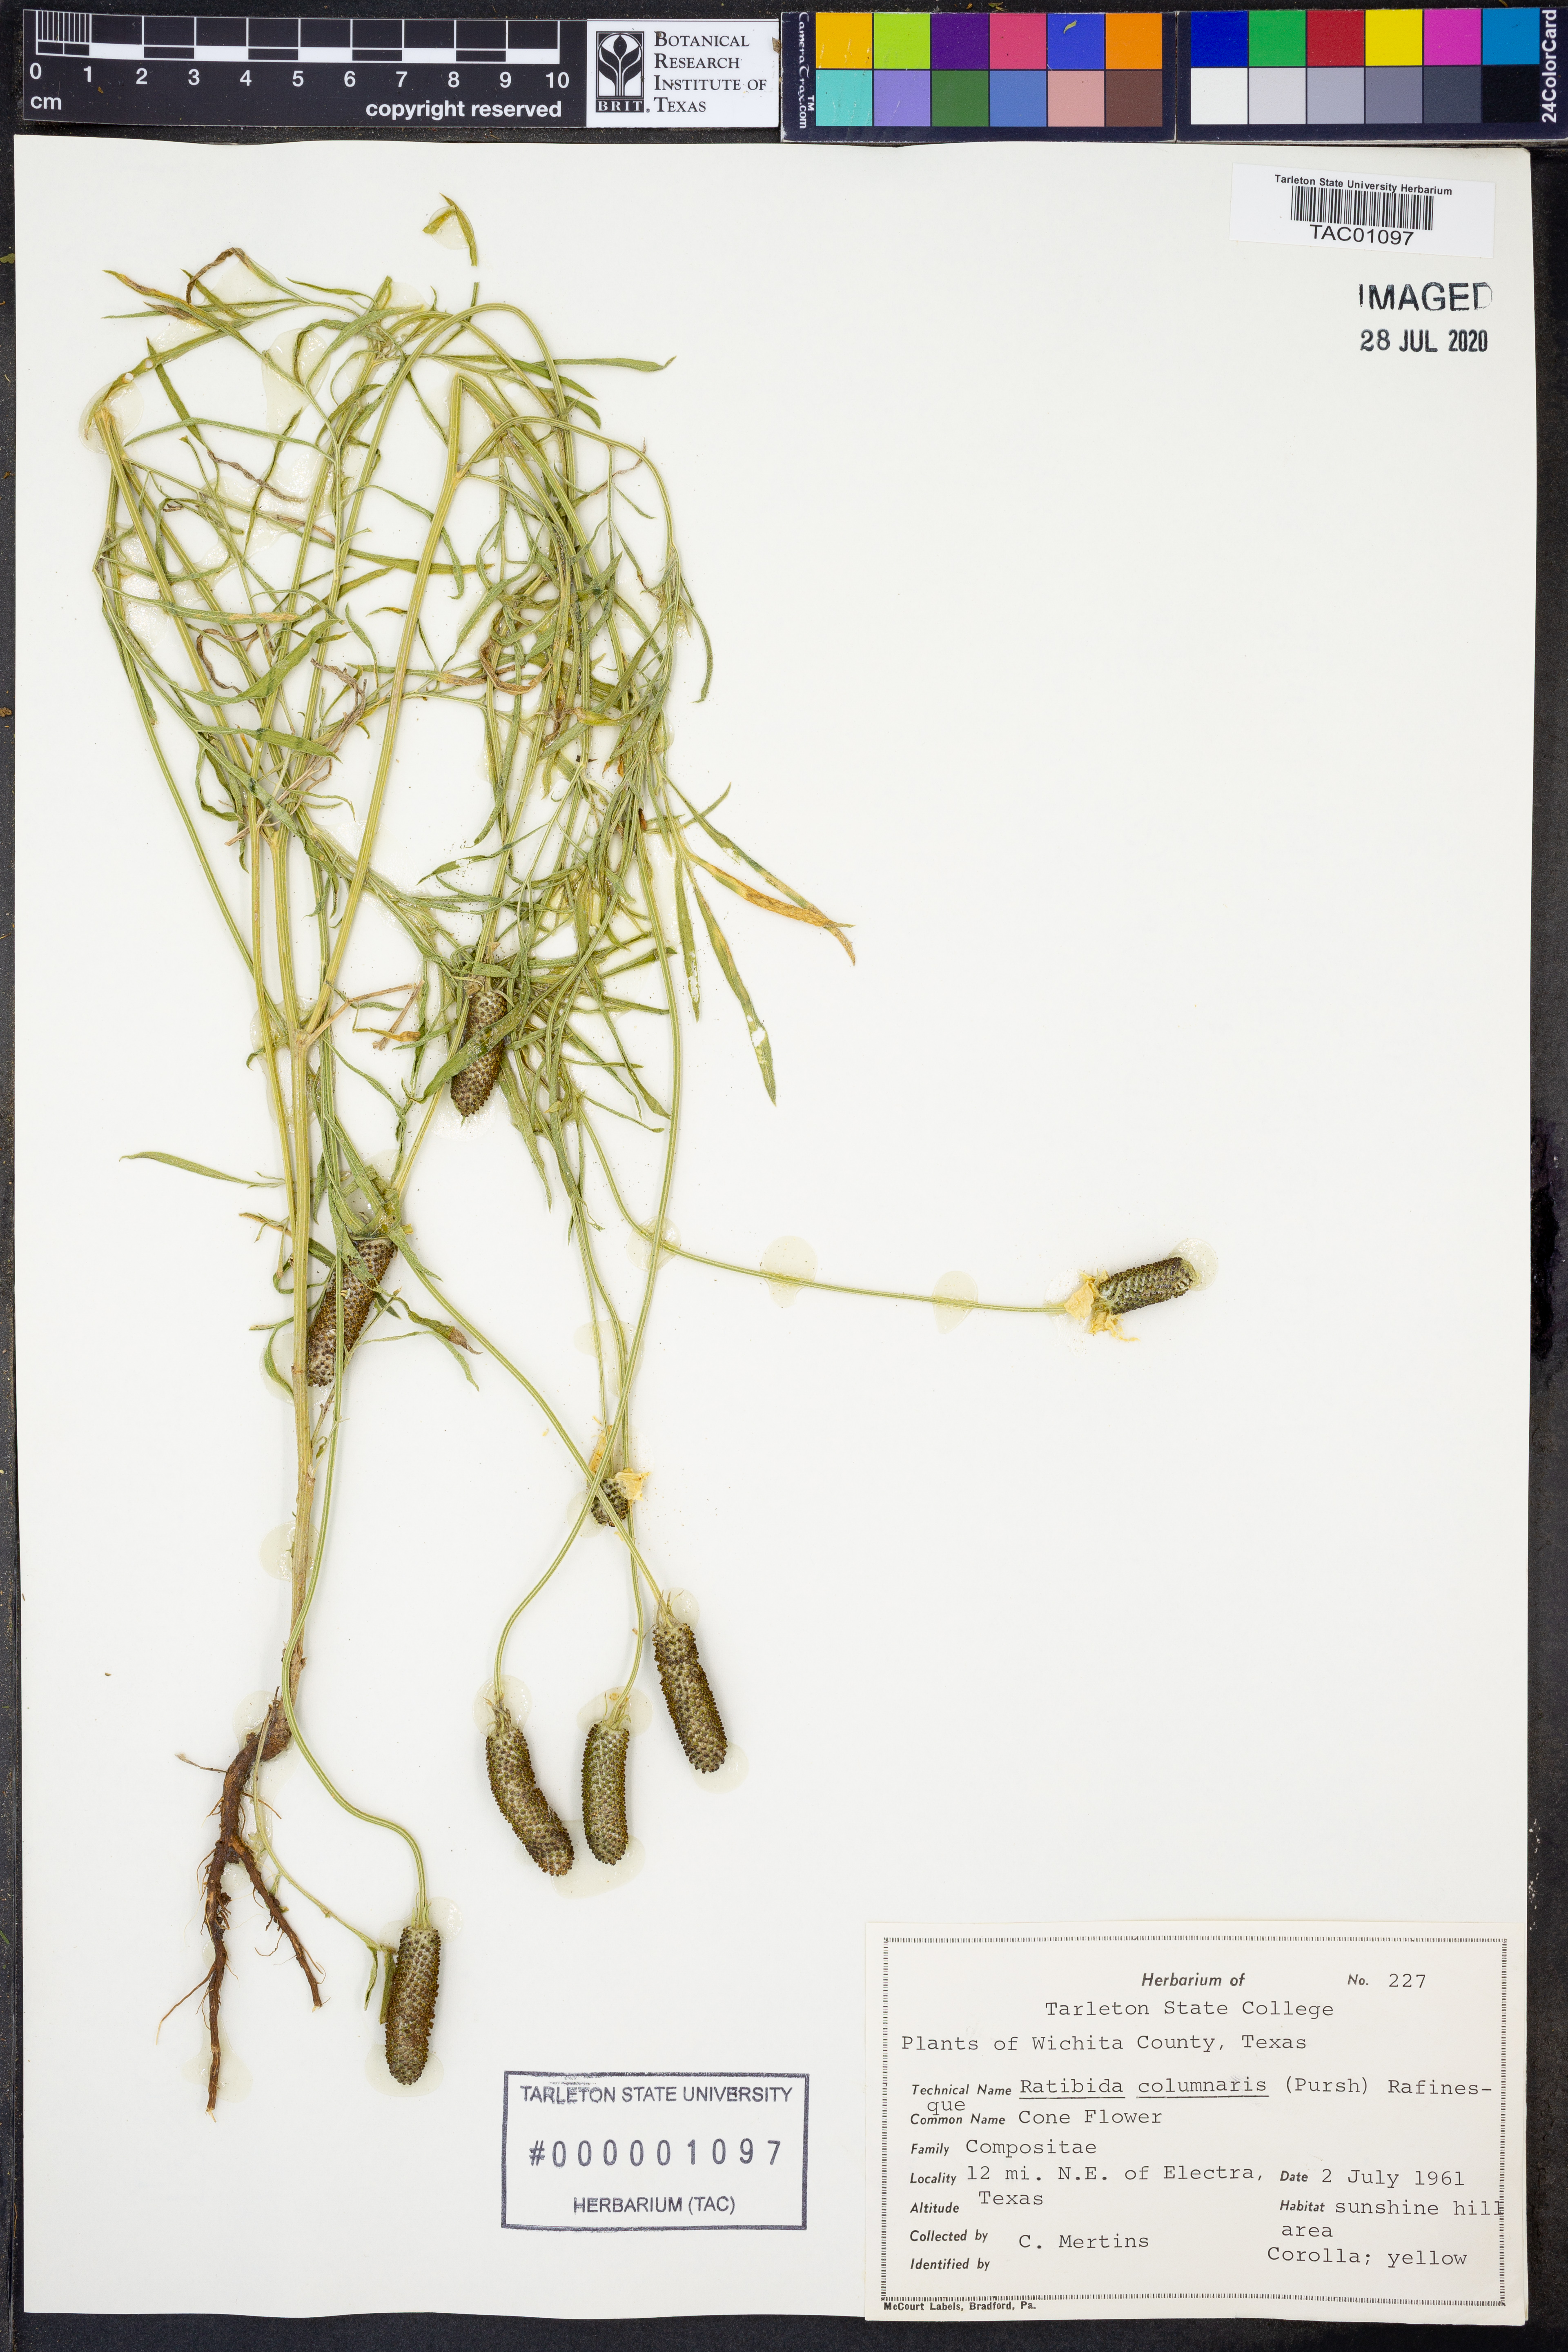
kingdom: Plantae
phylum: Tracheophyta
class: Magnoliopsida
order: Asterales
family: Asteraceae
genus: Ratibida
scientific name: Ratibida columnifera
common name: Prairie coneflower
